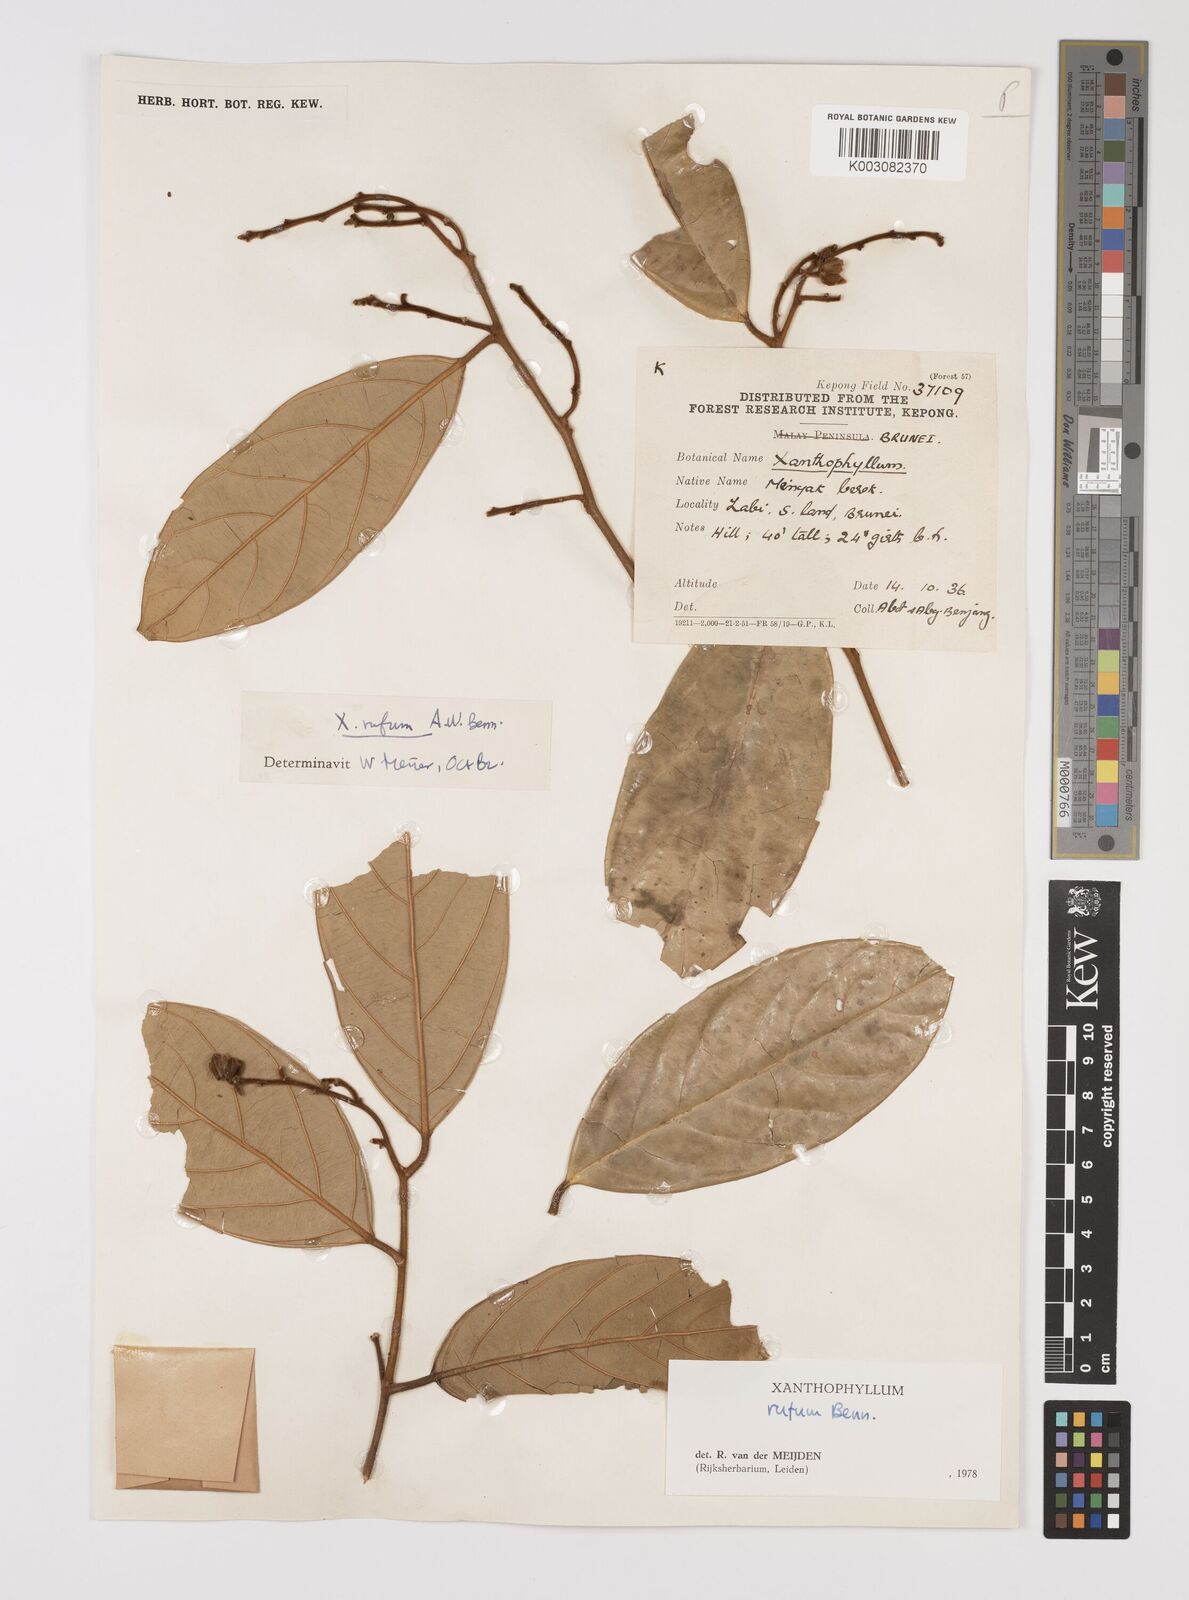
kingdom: Plantae
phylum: Tracheophyta
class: Magnoliopsida
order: Fabales
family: Polygalaceae
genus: Xanthophyllum
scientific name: Xanthophyllum rufum
